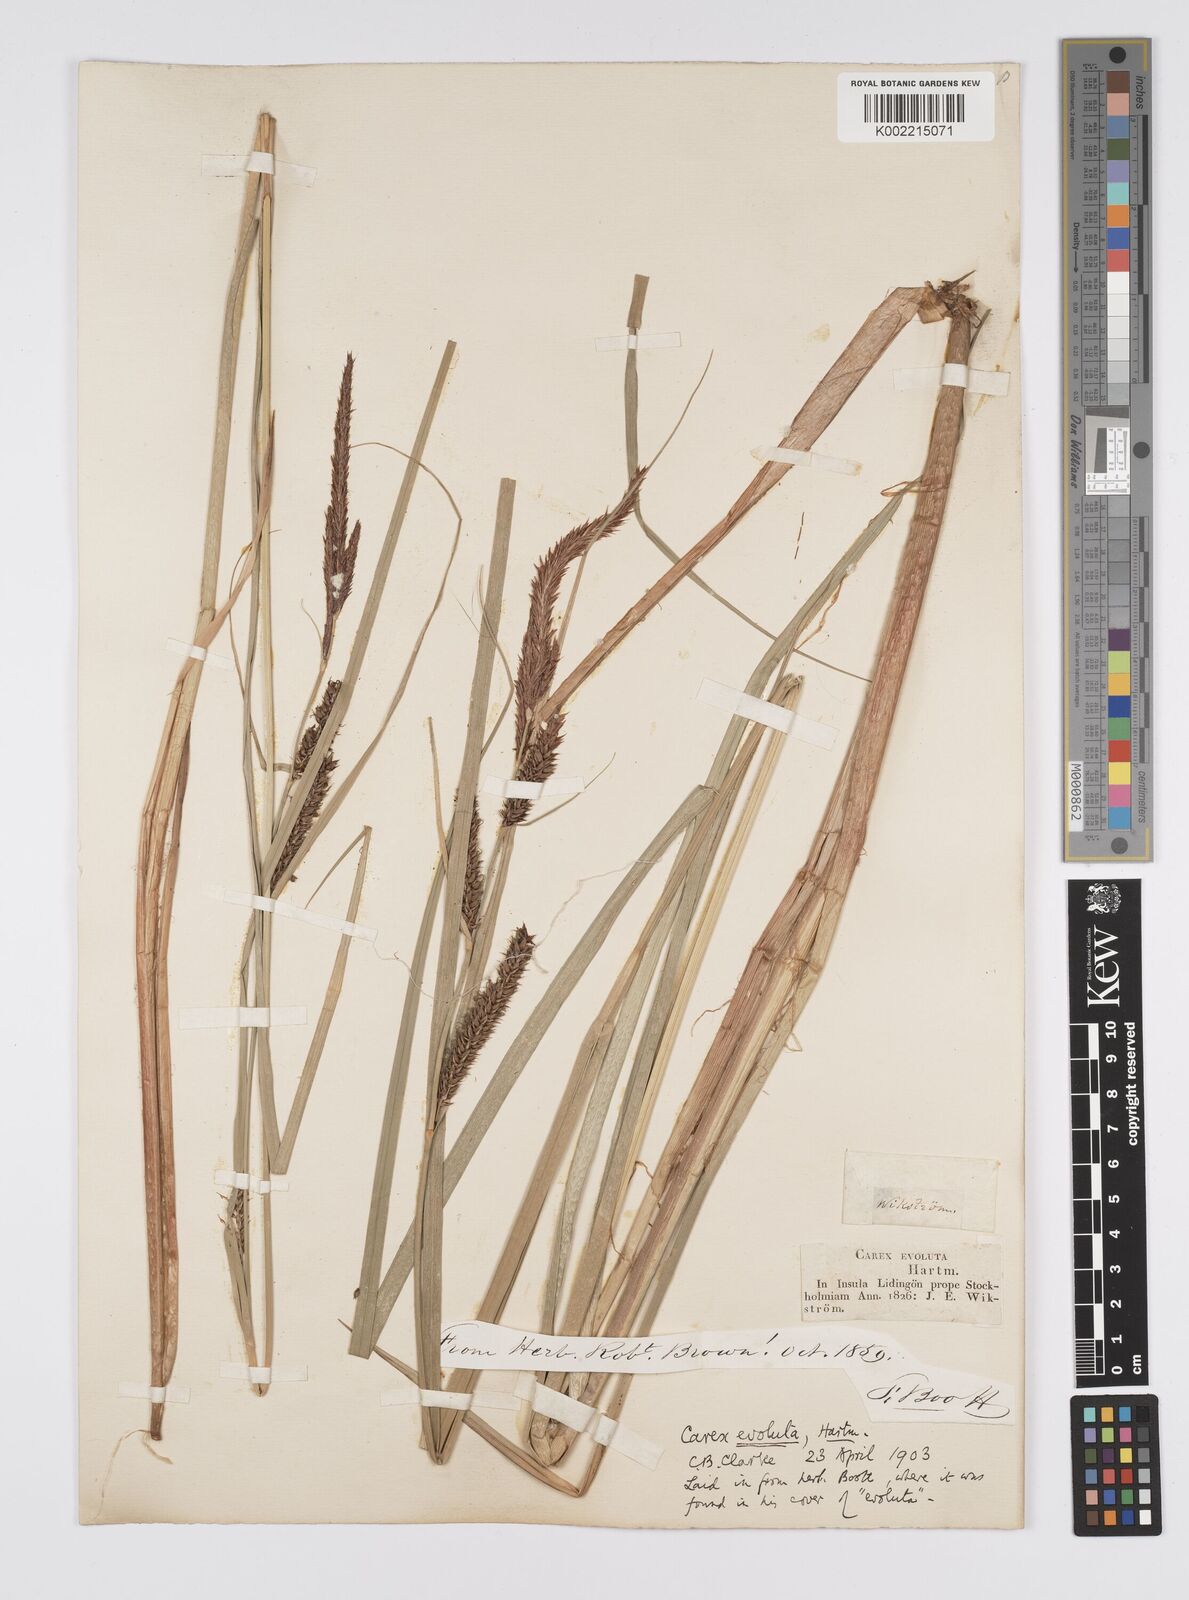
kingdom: Plantae
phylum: Tracheophyta
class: Liliopsida
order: Poales
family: Cyperaceae
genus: Carex
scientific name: Carex evoluta
